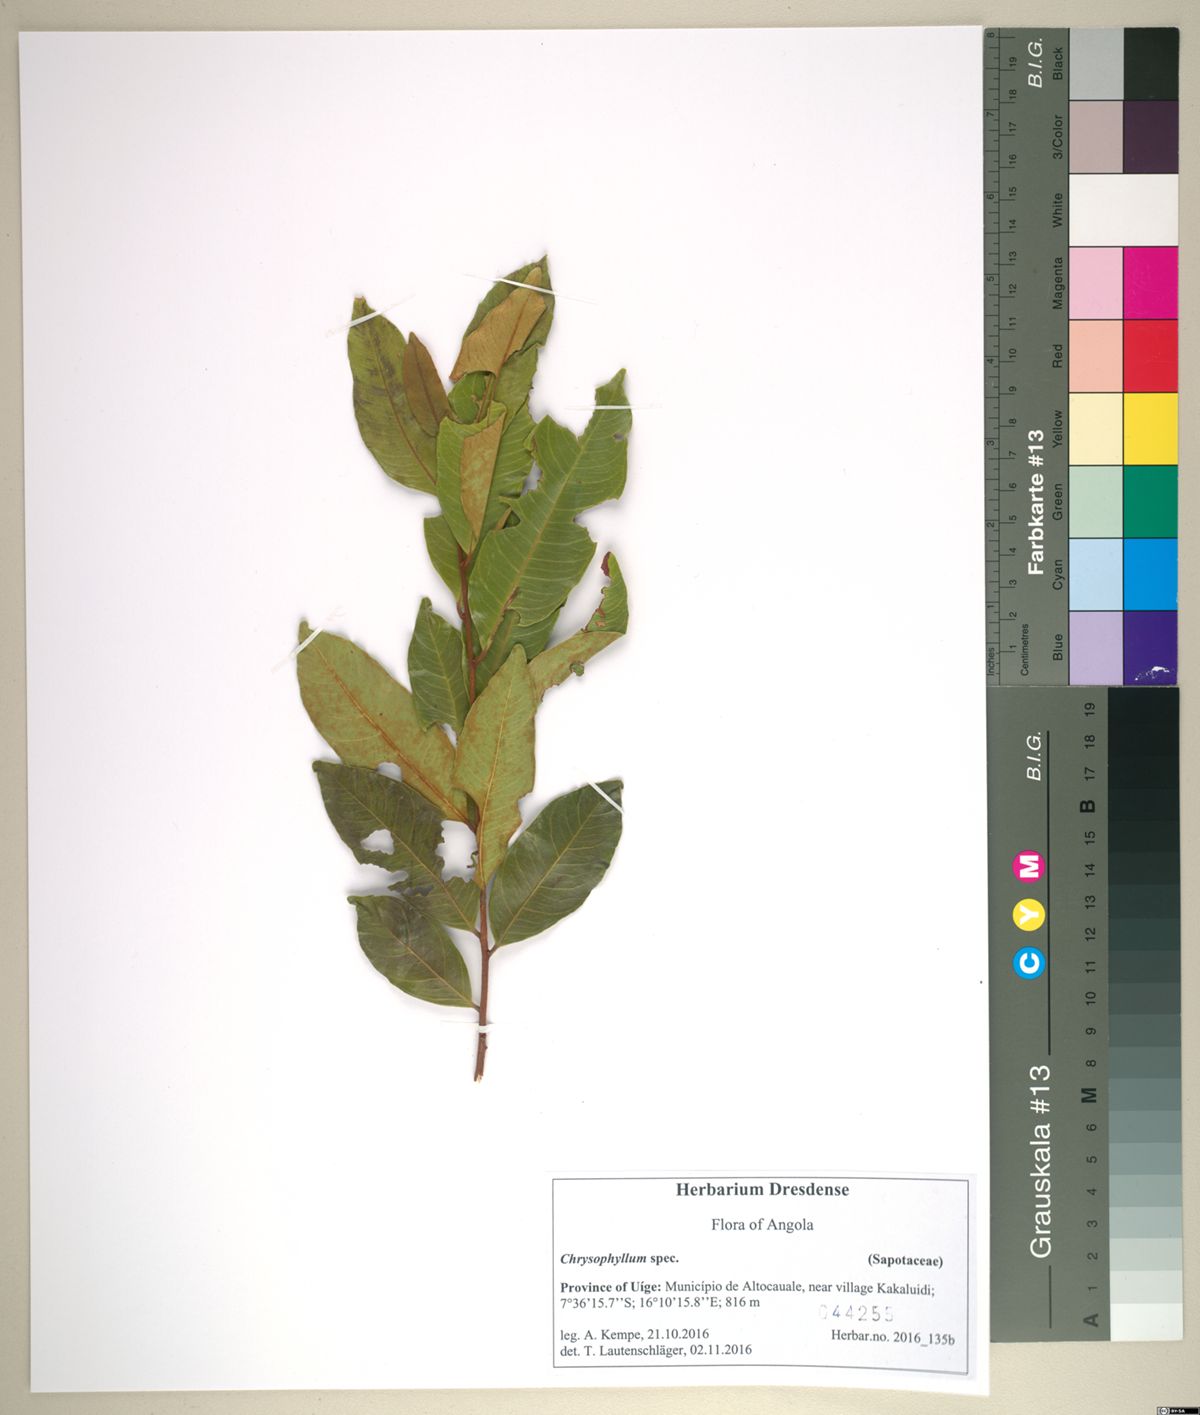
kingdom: Plantae
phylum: Tracheophyta
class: Magnoliopsida
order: Ericales
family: Sapotaceae
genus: Donella
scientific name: Donella bangweolensis
